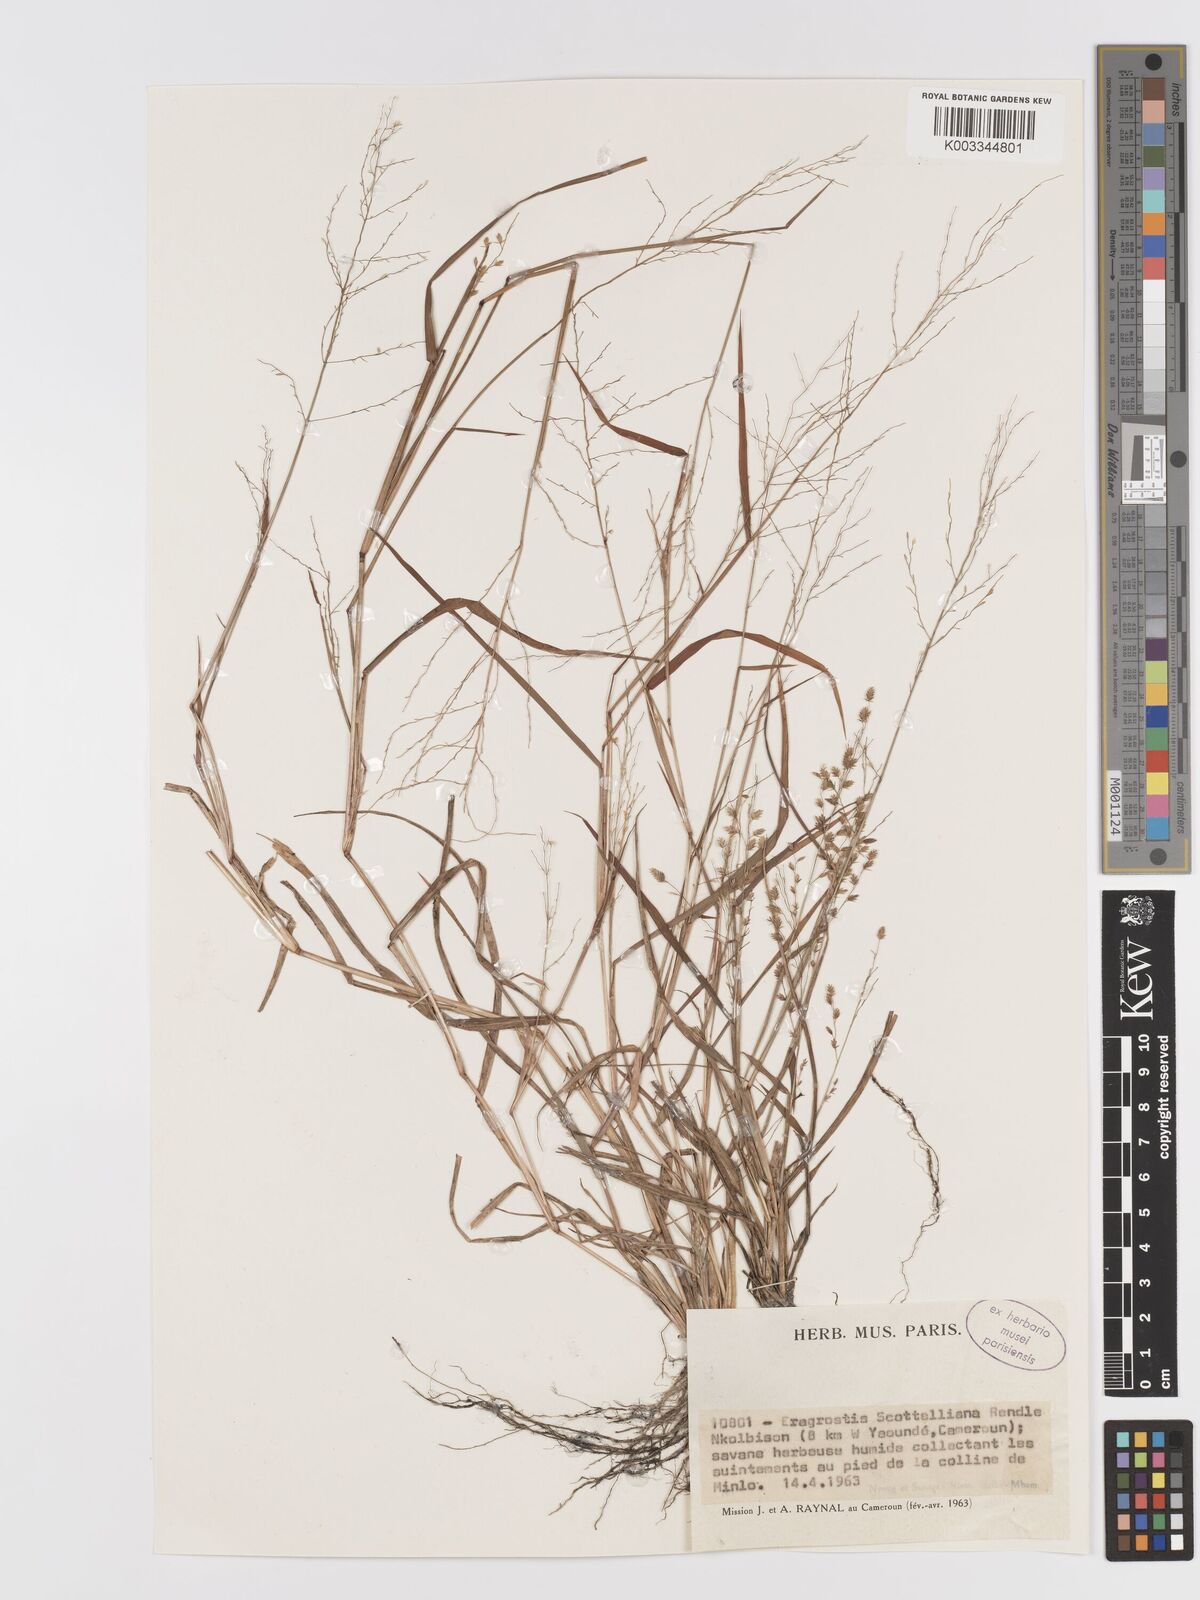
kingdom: Plantae
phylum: Tracheophyta
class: Liliopsida
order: Poales
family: Poaceae
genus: Eragrostis
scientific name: Eragrostis scotelliana
